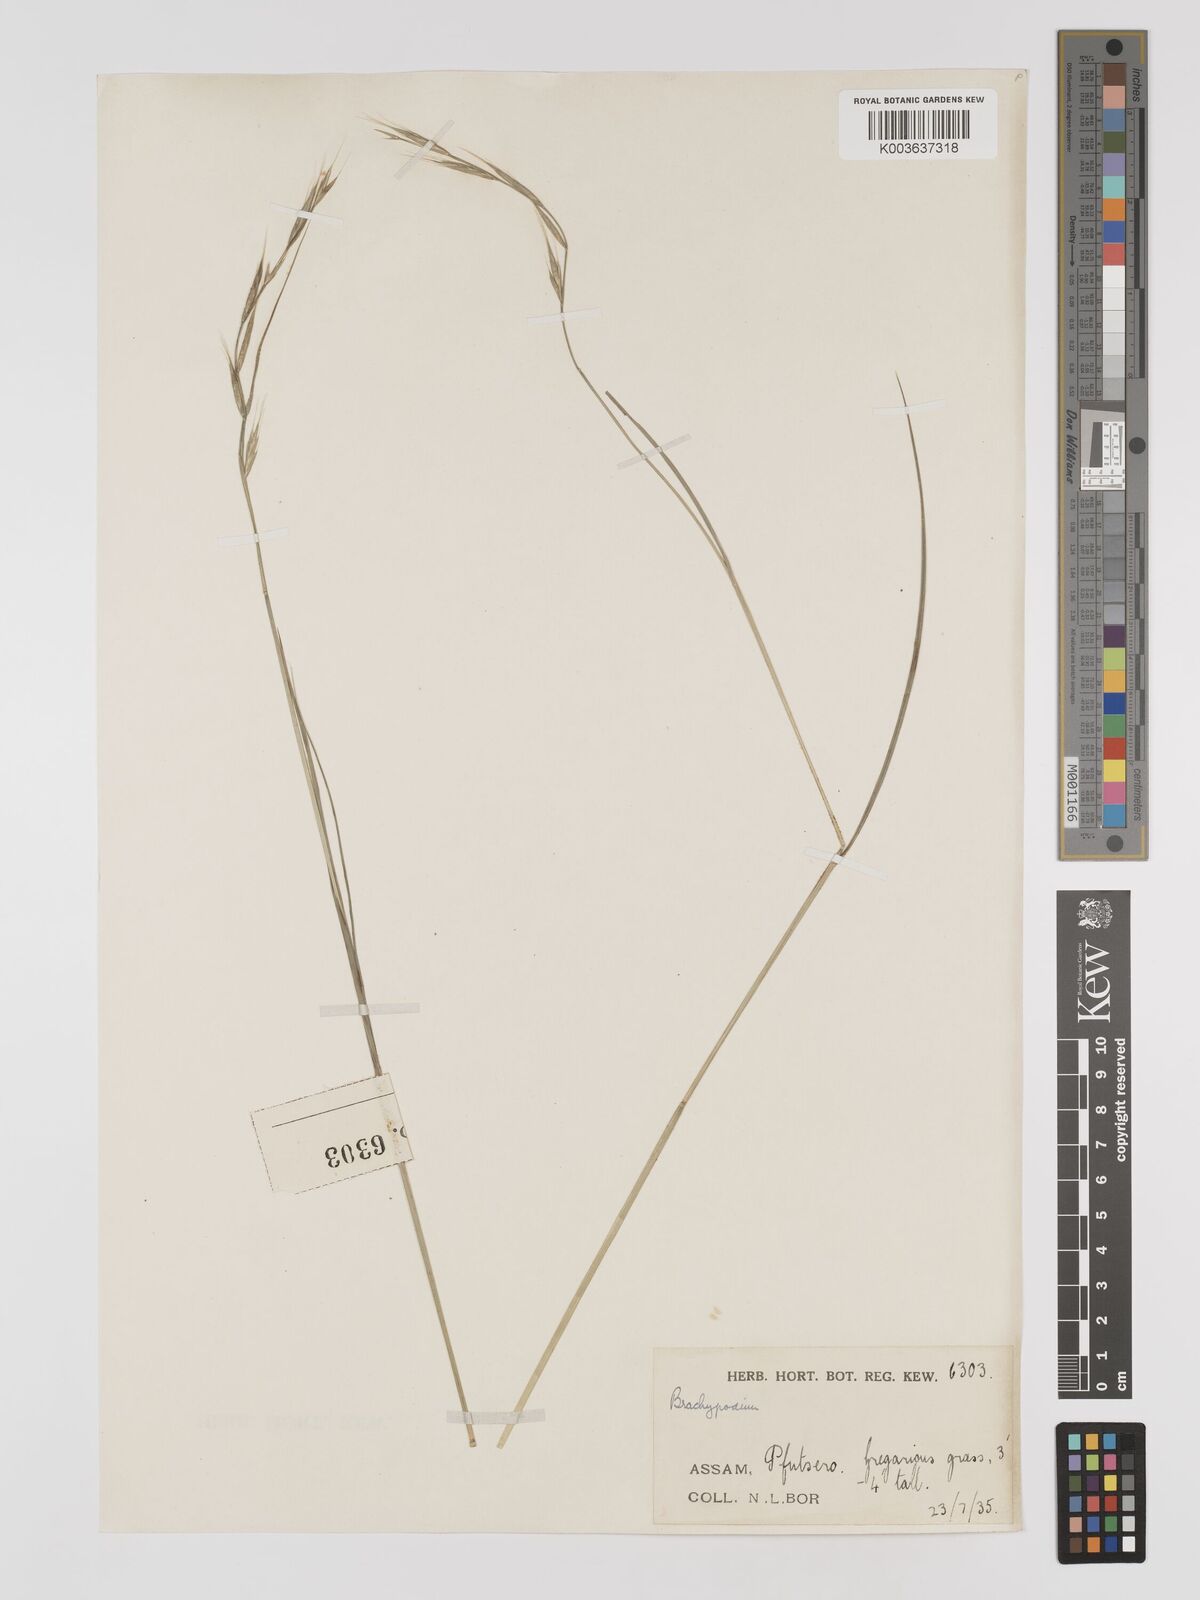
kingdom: Plantae
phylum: Tracheophyta
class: Liliopsida
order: Poales
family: Poaceae
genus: Brachypodium
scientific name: Brachypodium sylvaticum
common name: False-brome
